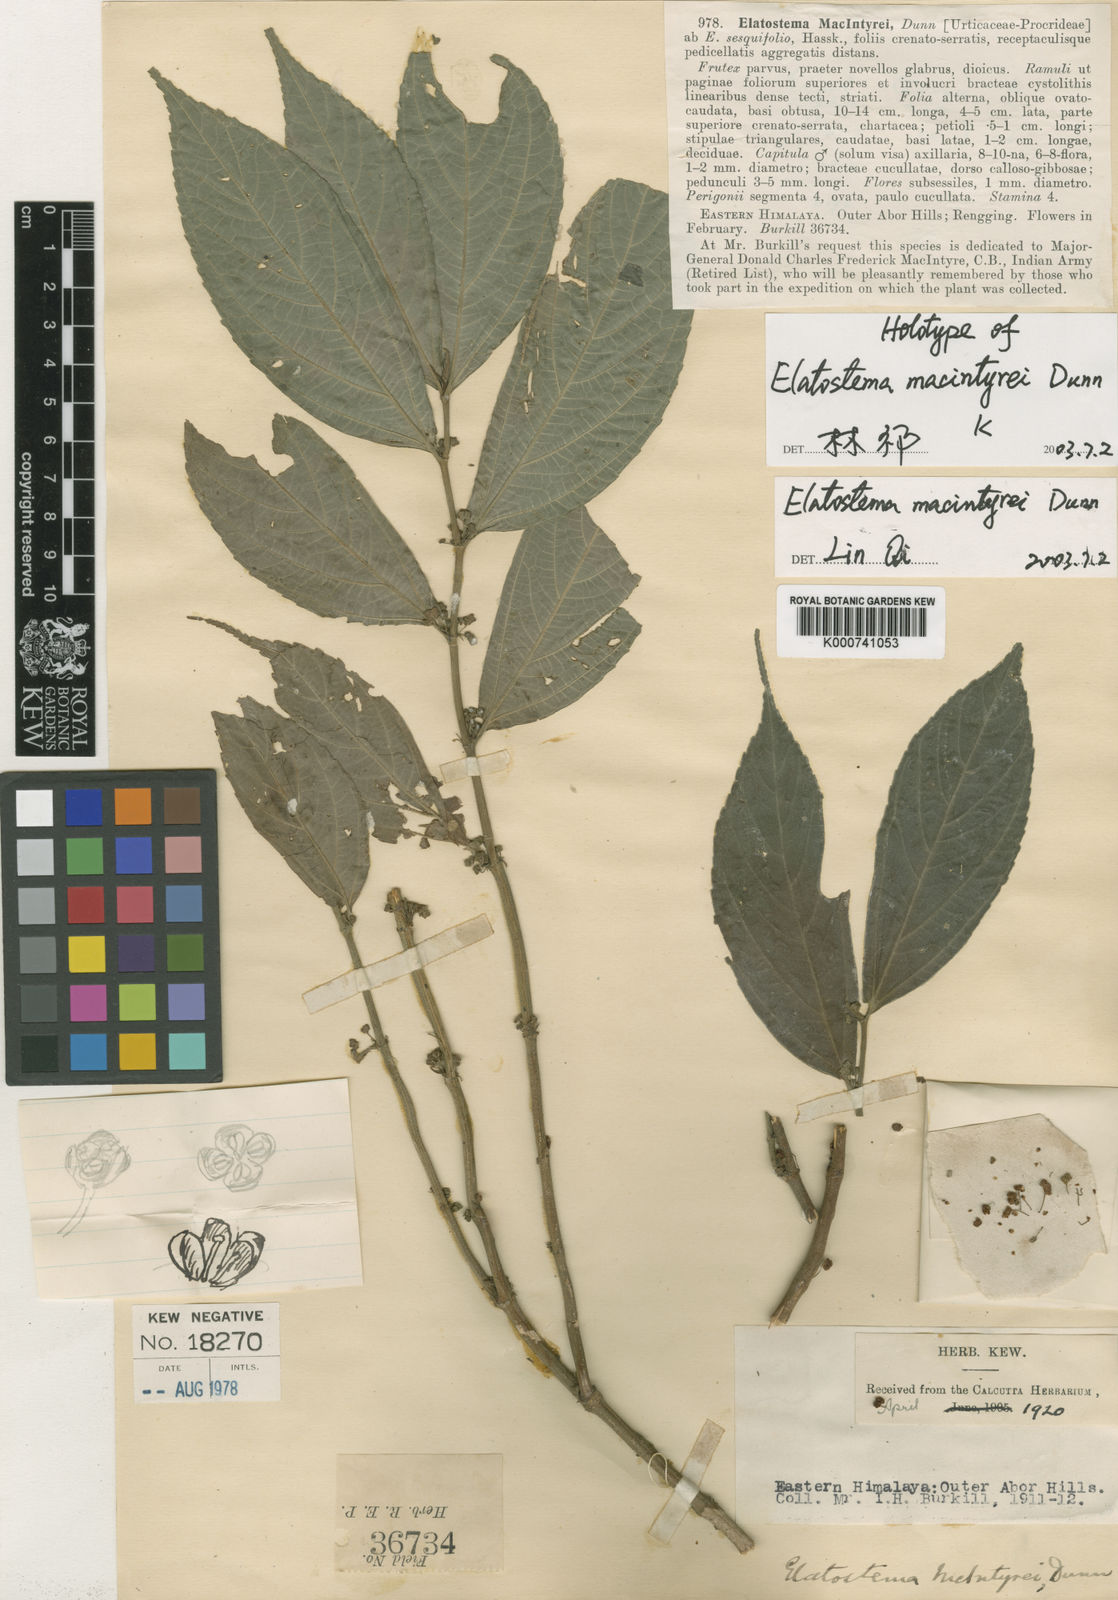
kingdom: Plantae
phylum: Tracheophyta
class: Magnoliopsida
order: Rosales
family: Urticaceae
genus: Elatostema
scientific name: Elatostema macintyrei
